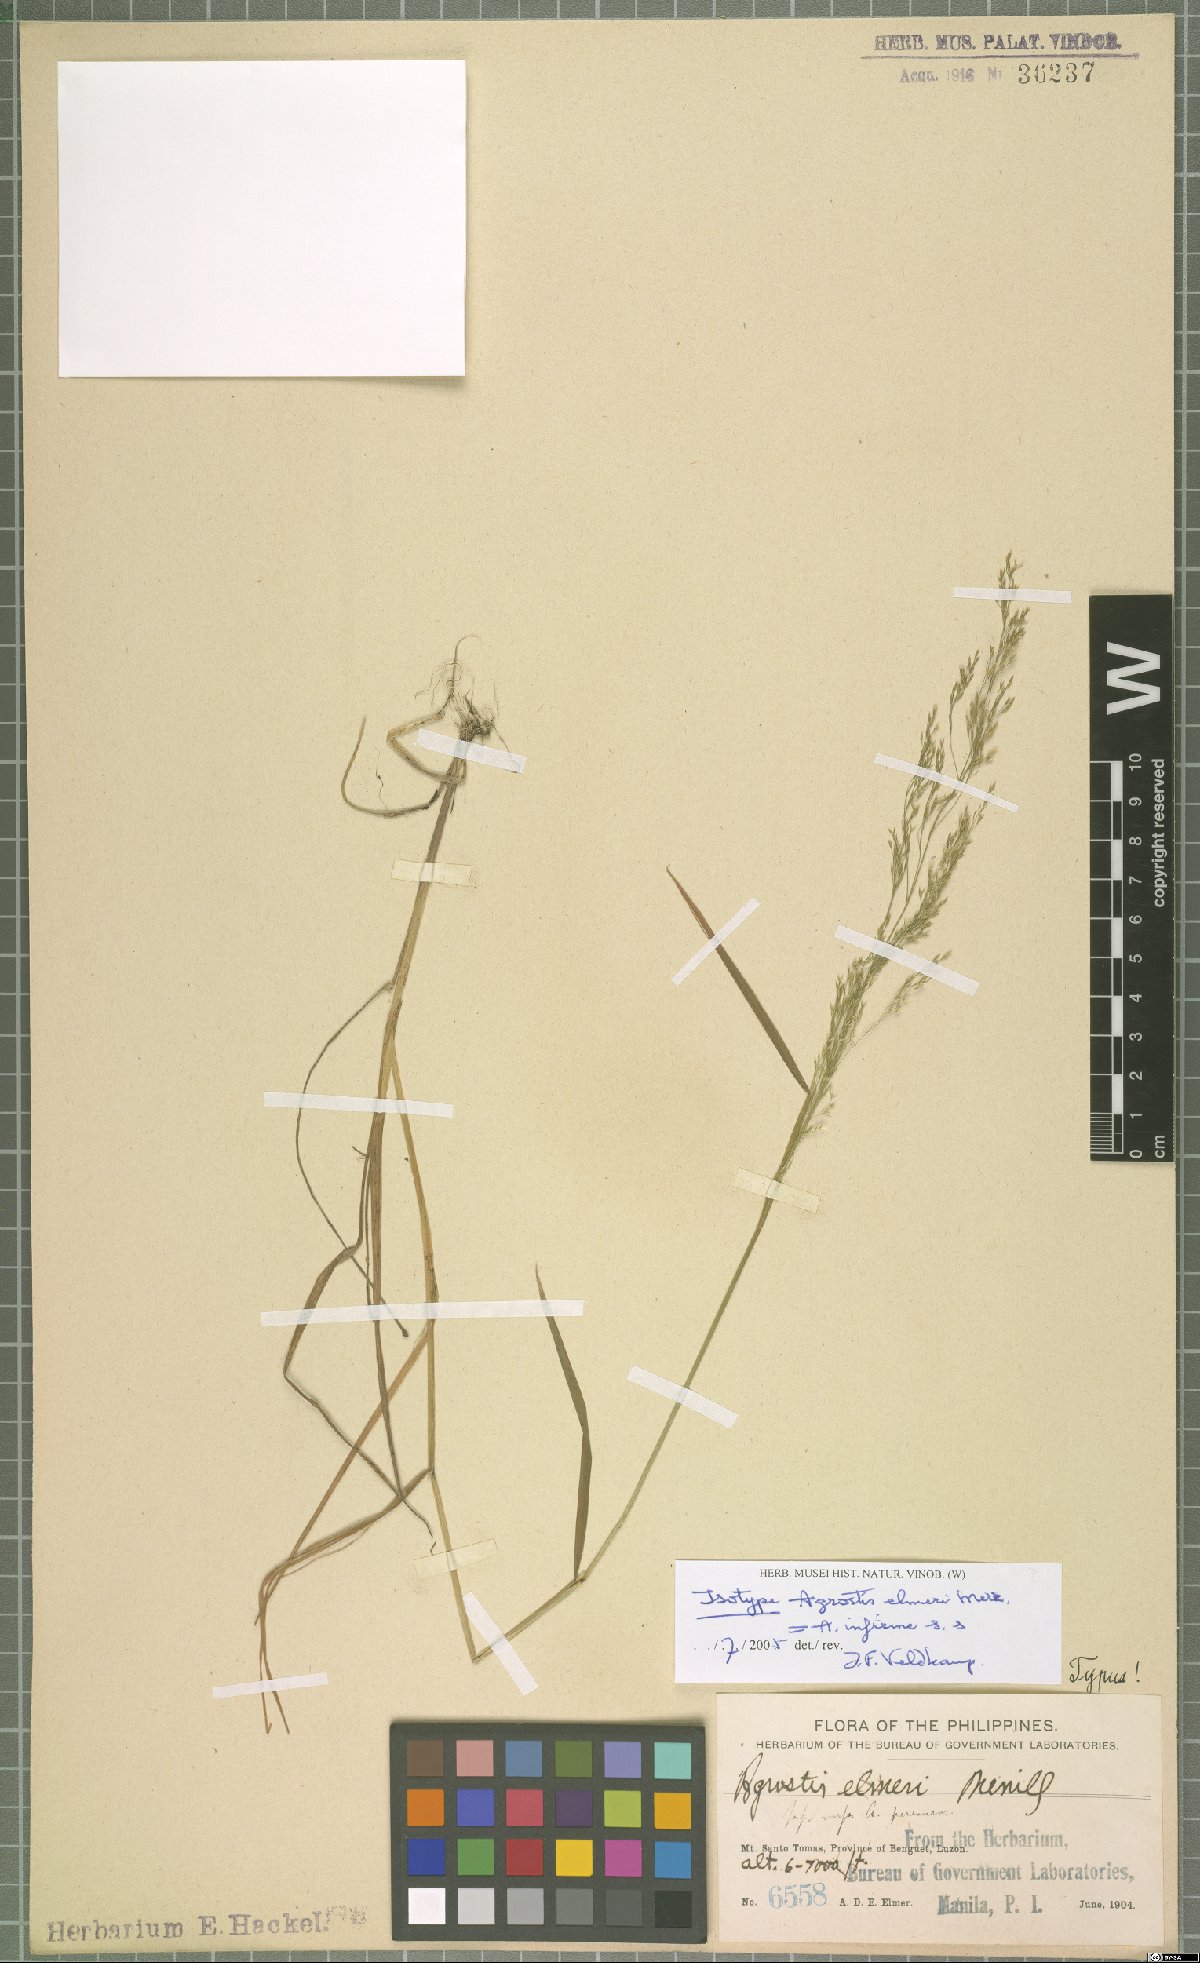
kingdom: Plantae
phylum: Tracheophyta
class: Liliopsida
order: Poales
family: Poaceae
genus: Agrostis
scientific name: Agrostis infirma
